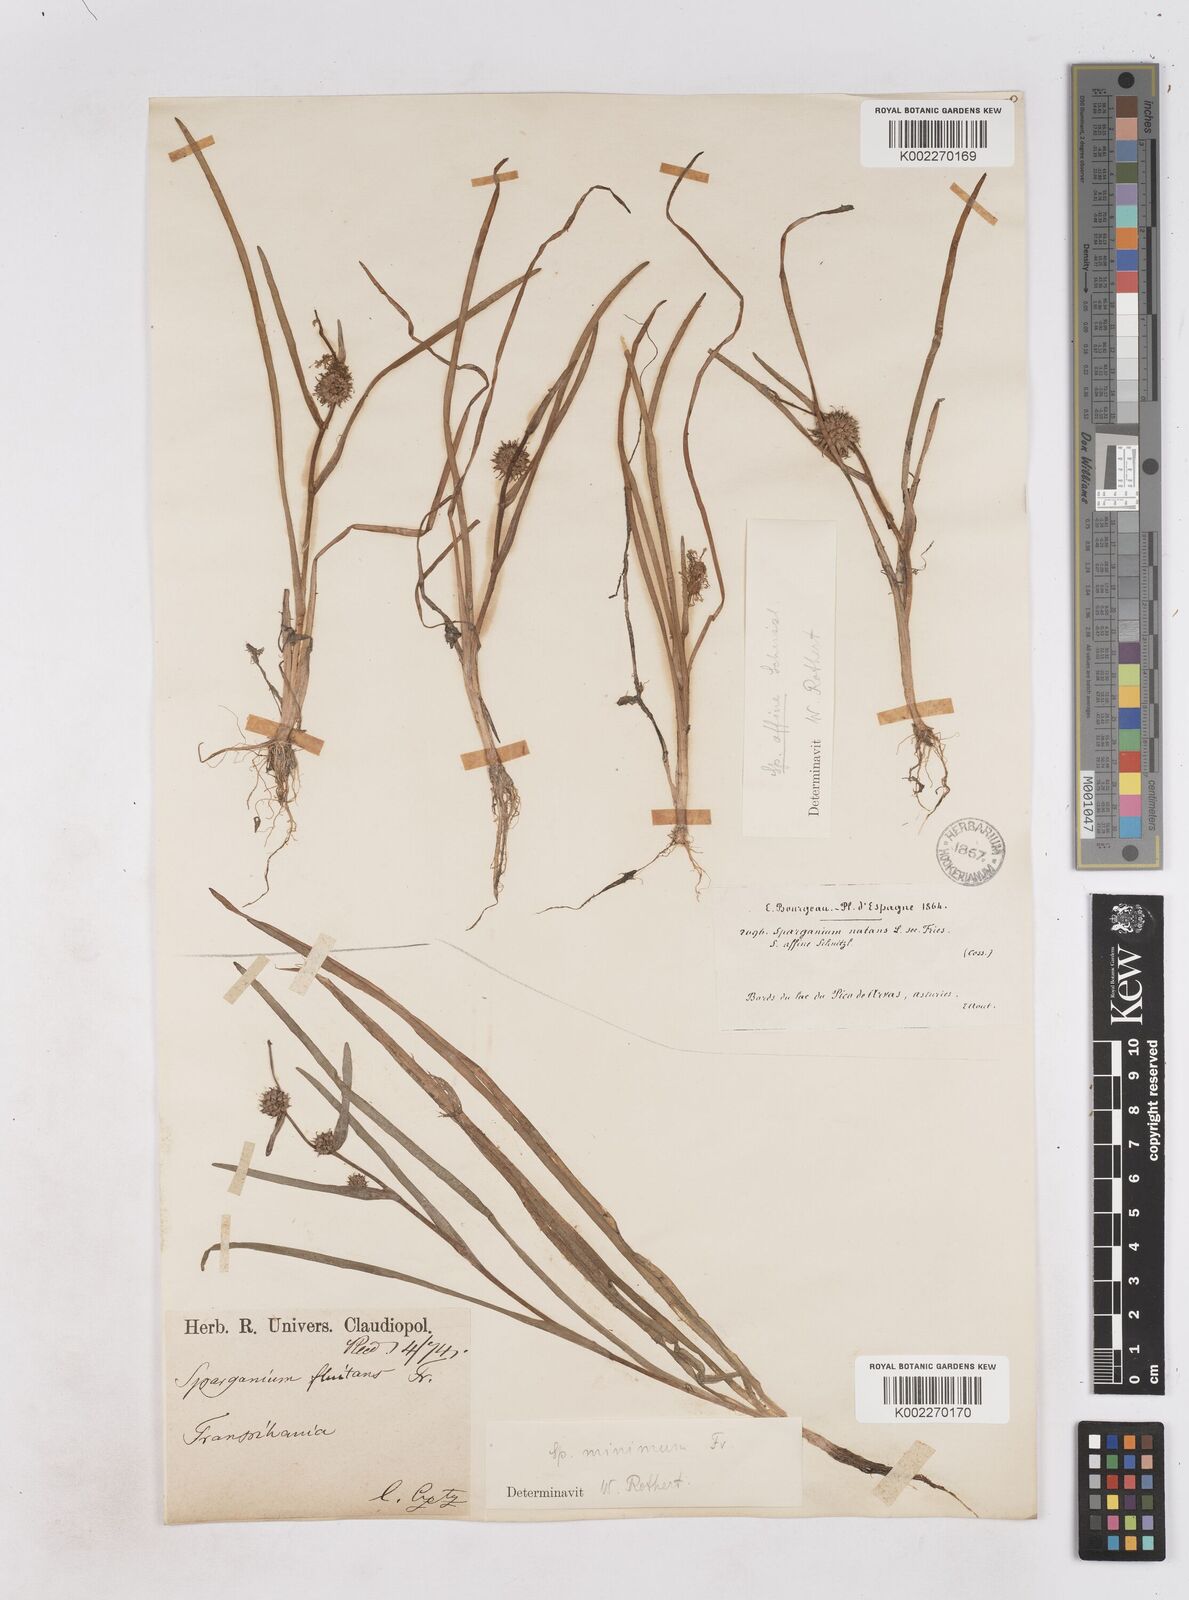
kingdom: Plantae
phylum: Tracheophyta
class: Liliopsida
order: Poales
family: Typhaceae
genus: Sparganium
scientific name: Sparganium natans
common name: Least bur-reed
